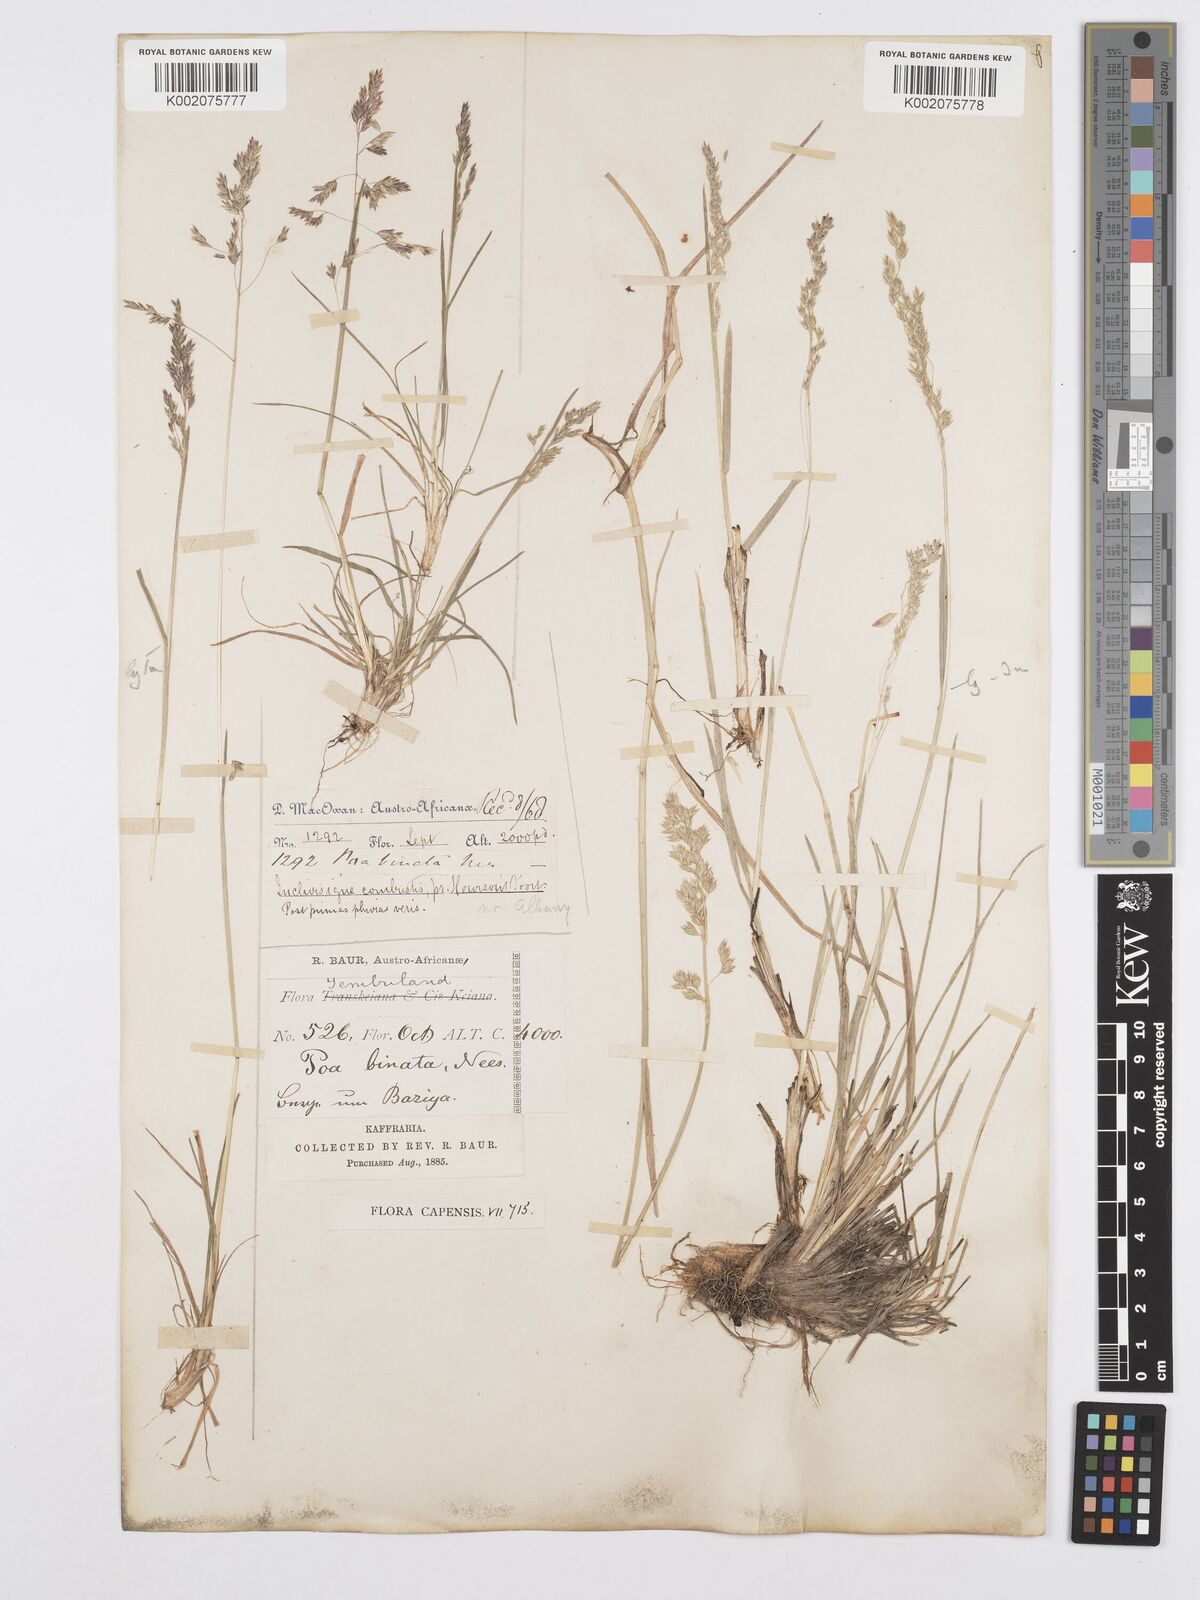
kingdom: Plantae
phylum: Tracheophyta
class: Liliopsida
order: Poales
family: Poaceae
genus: Poa
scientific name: Poa binata
